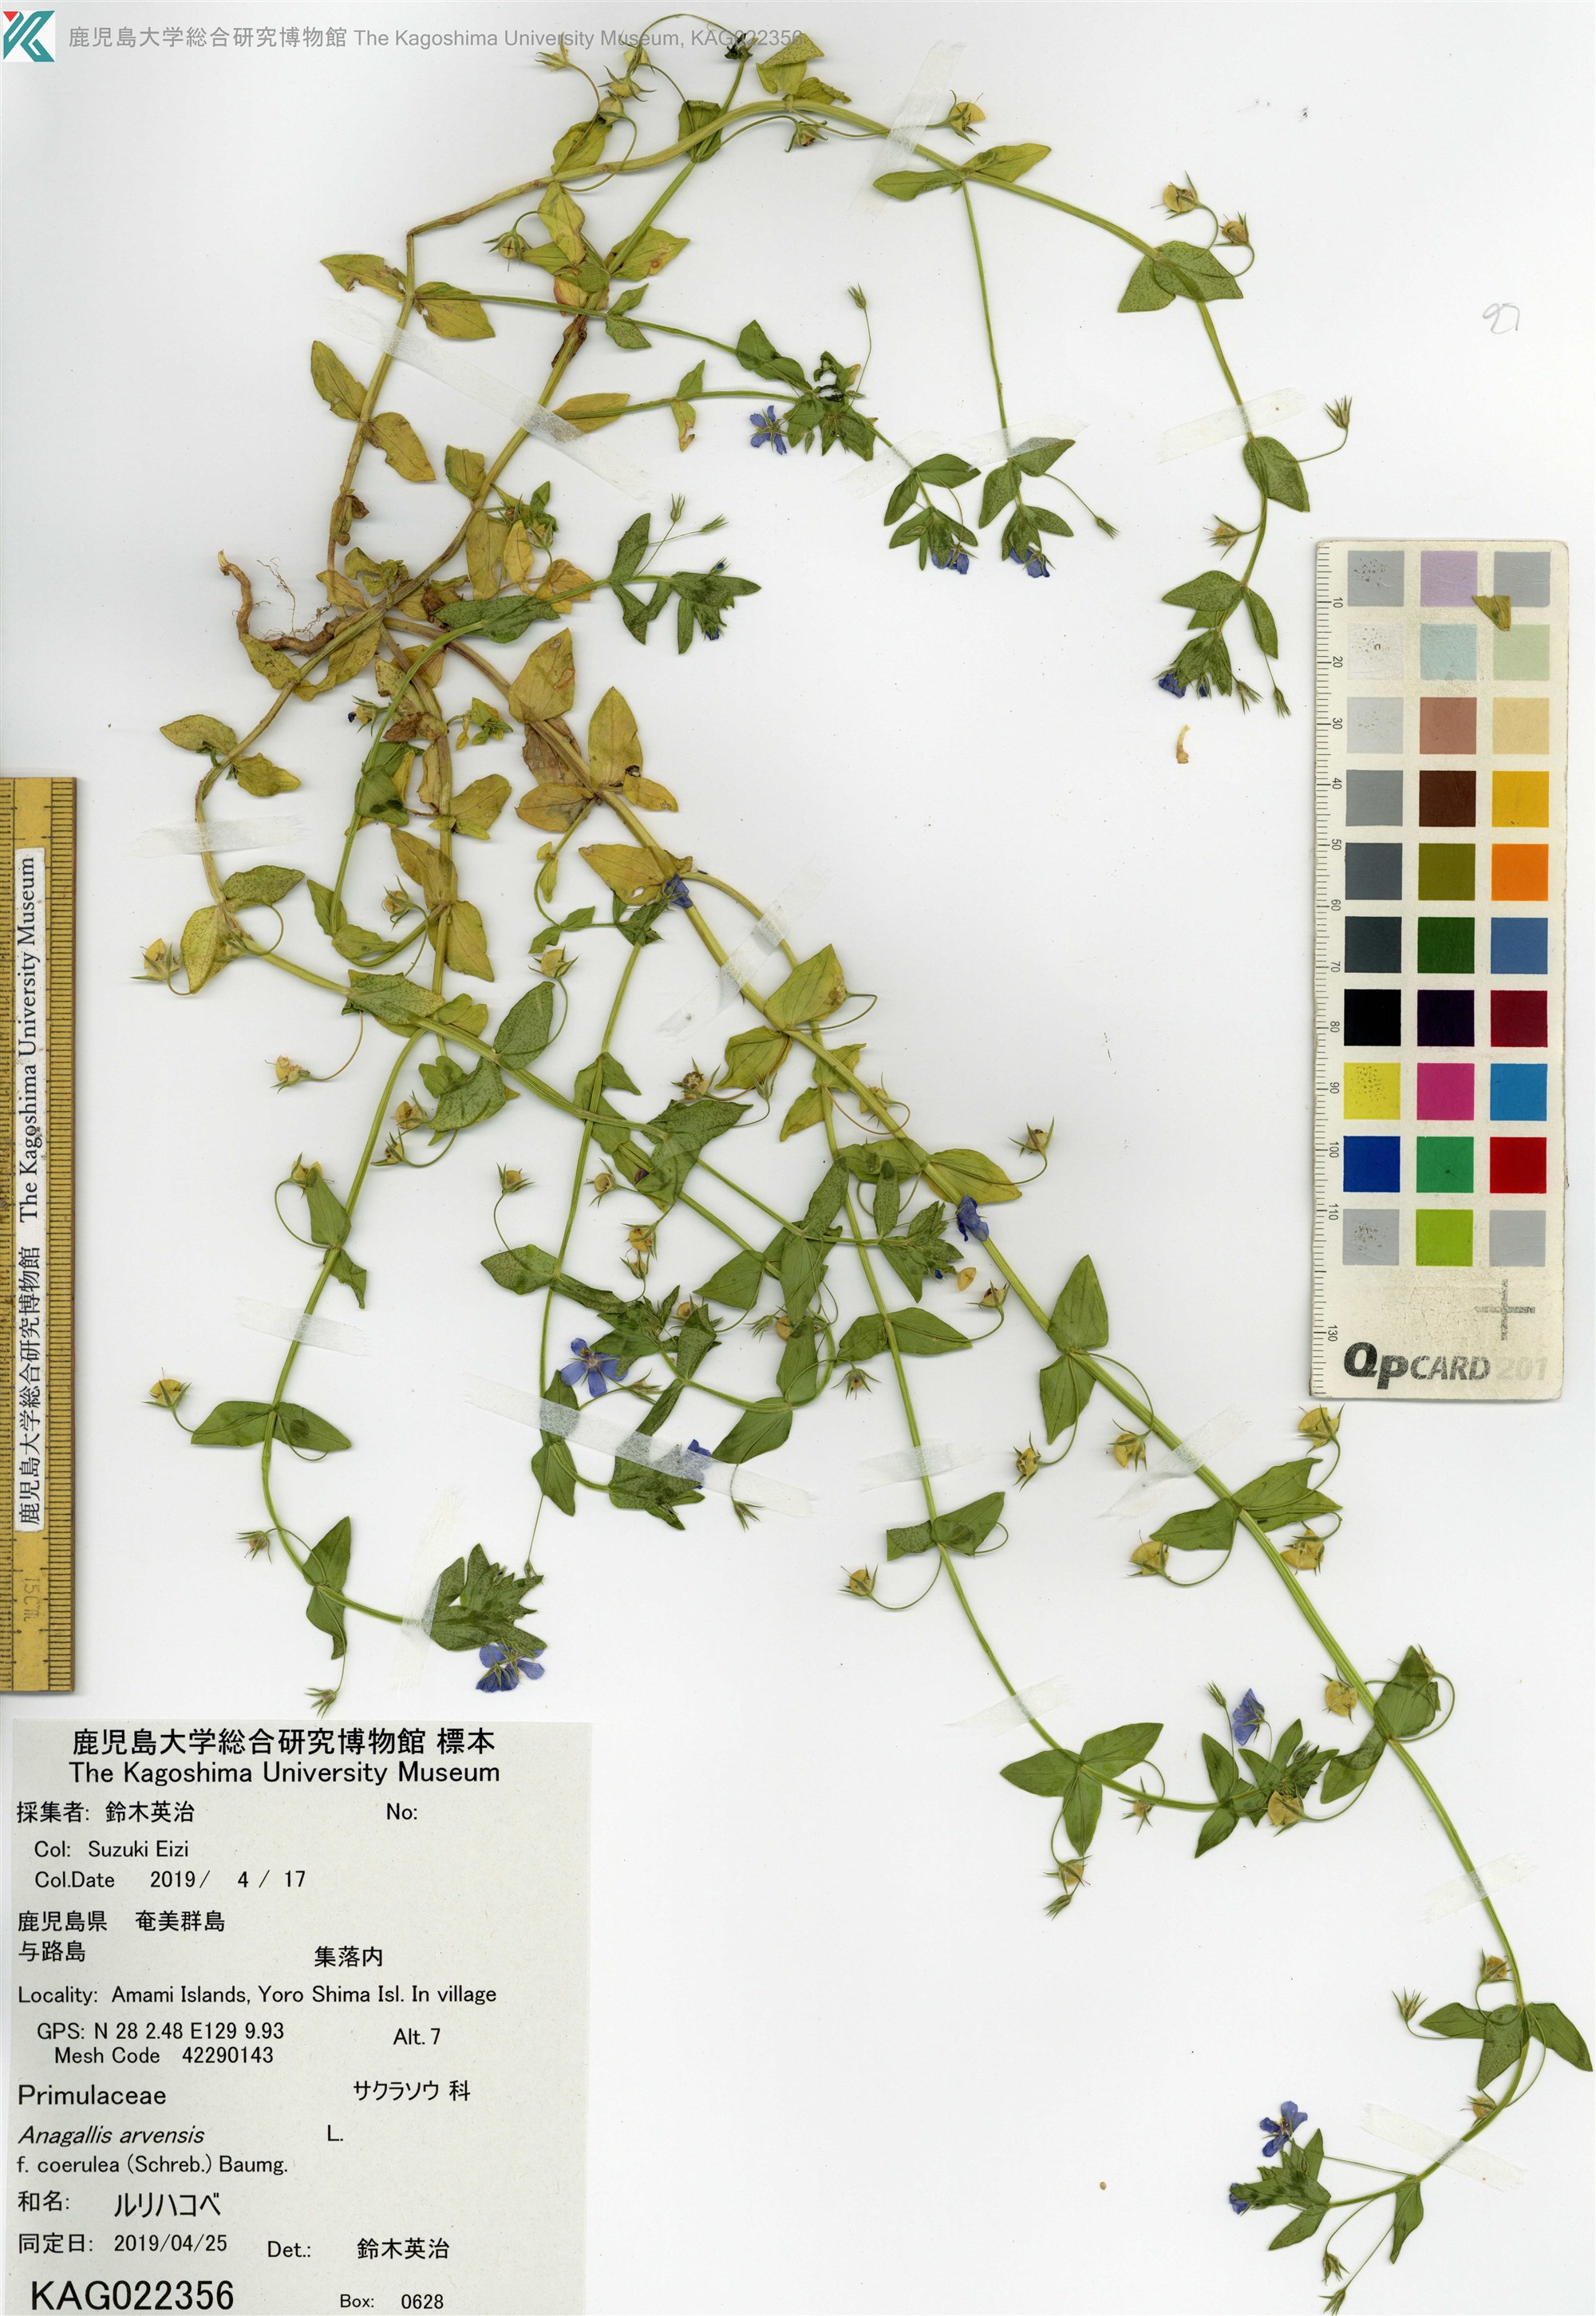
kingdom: Plantae
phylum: Tracheophyta
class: Magnoliopsida
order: Ericales
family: Primulaceae
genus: Lysimachia
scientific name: Lysimachia loeflingii
